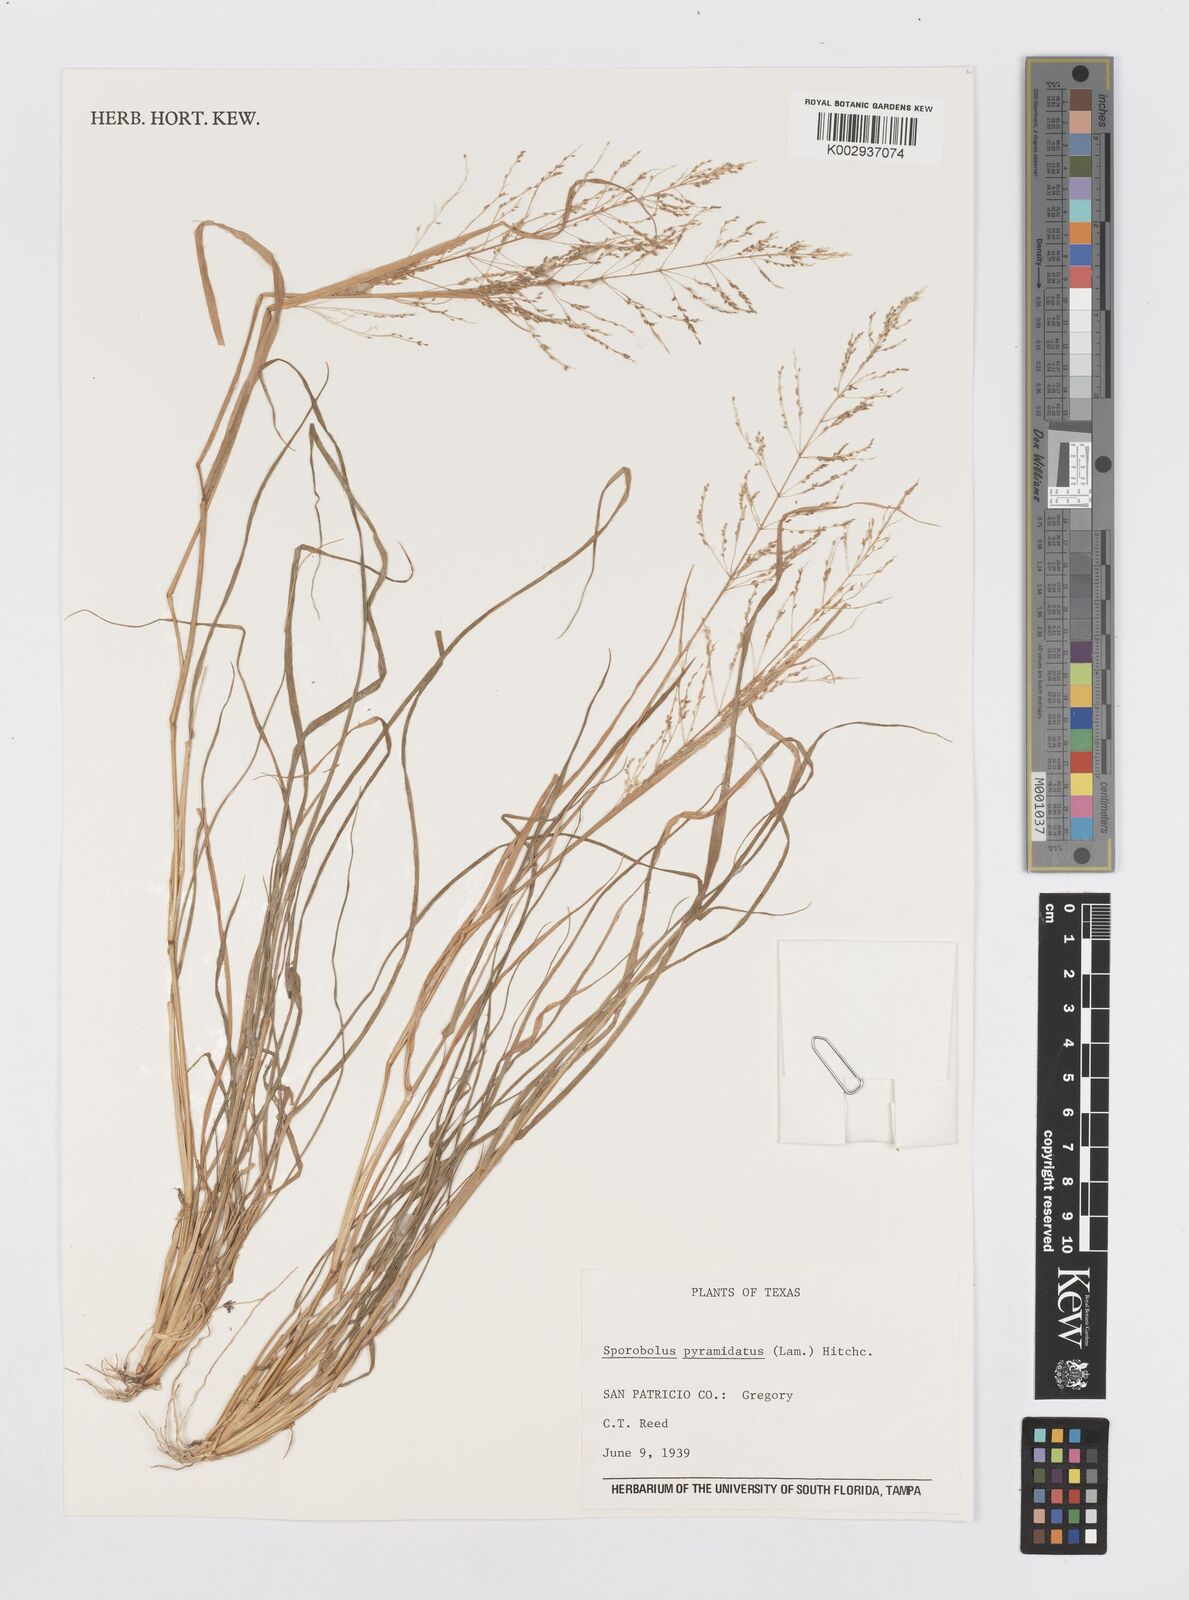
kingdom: Plantae
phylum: Tracheophyta
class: Liliopsida
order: Poales
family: Poaceae
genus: Sporobolus
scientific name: Sporobolus pyramidatus
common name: Whorled dropseed
